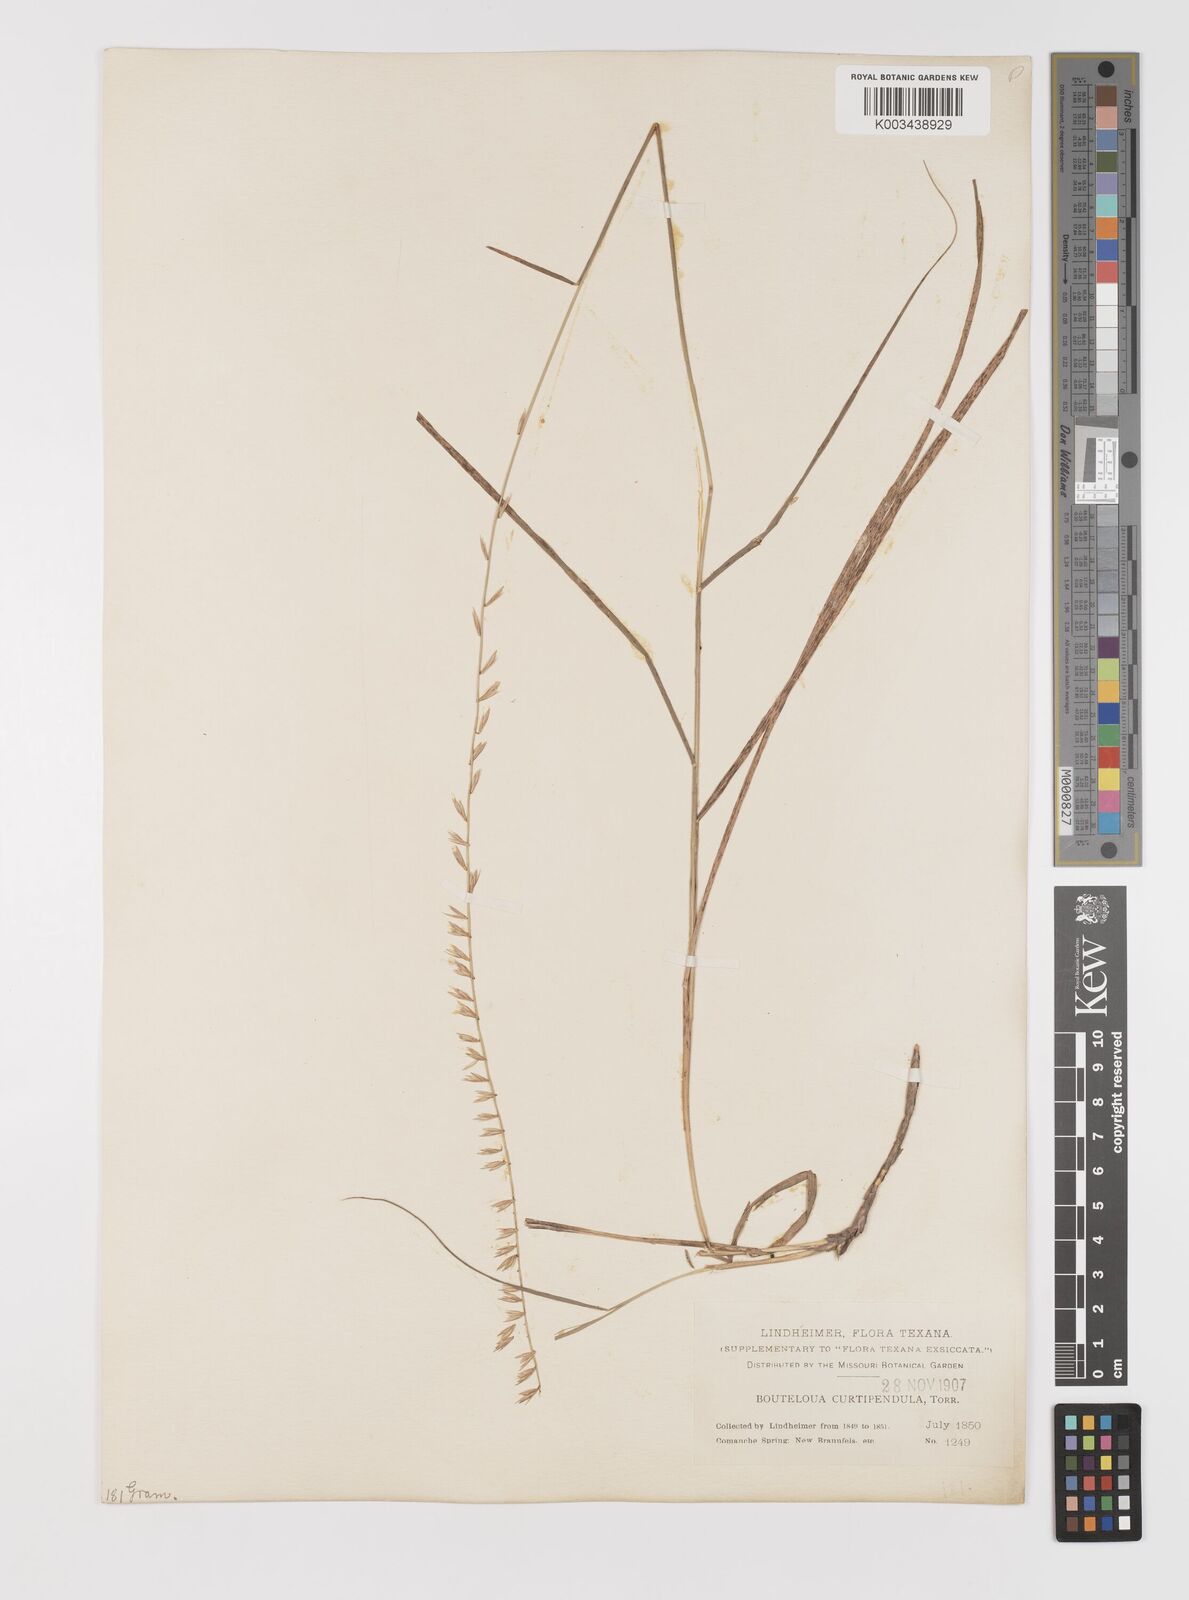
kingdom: Plantae
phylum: Tracheophyta
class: Liliopsida
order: Poales
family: Poaceae
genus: Bouteloua
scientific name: Bouteloua curtipendula
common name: Side-oats grama
